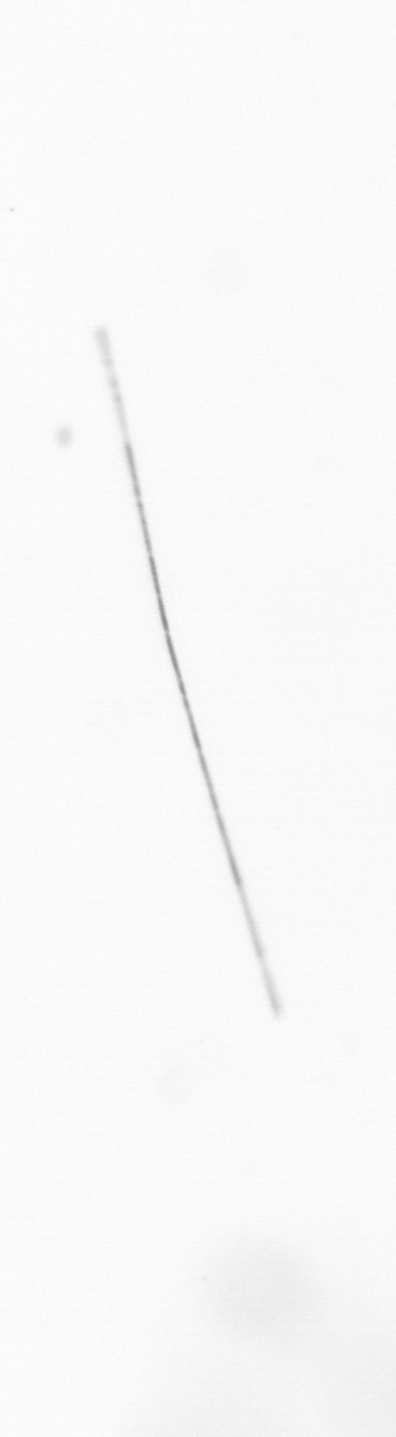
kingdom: Chromista
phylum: Ochrophyta
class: Bacillariophyceae
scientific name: Bacillariophyceae
